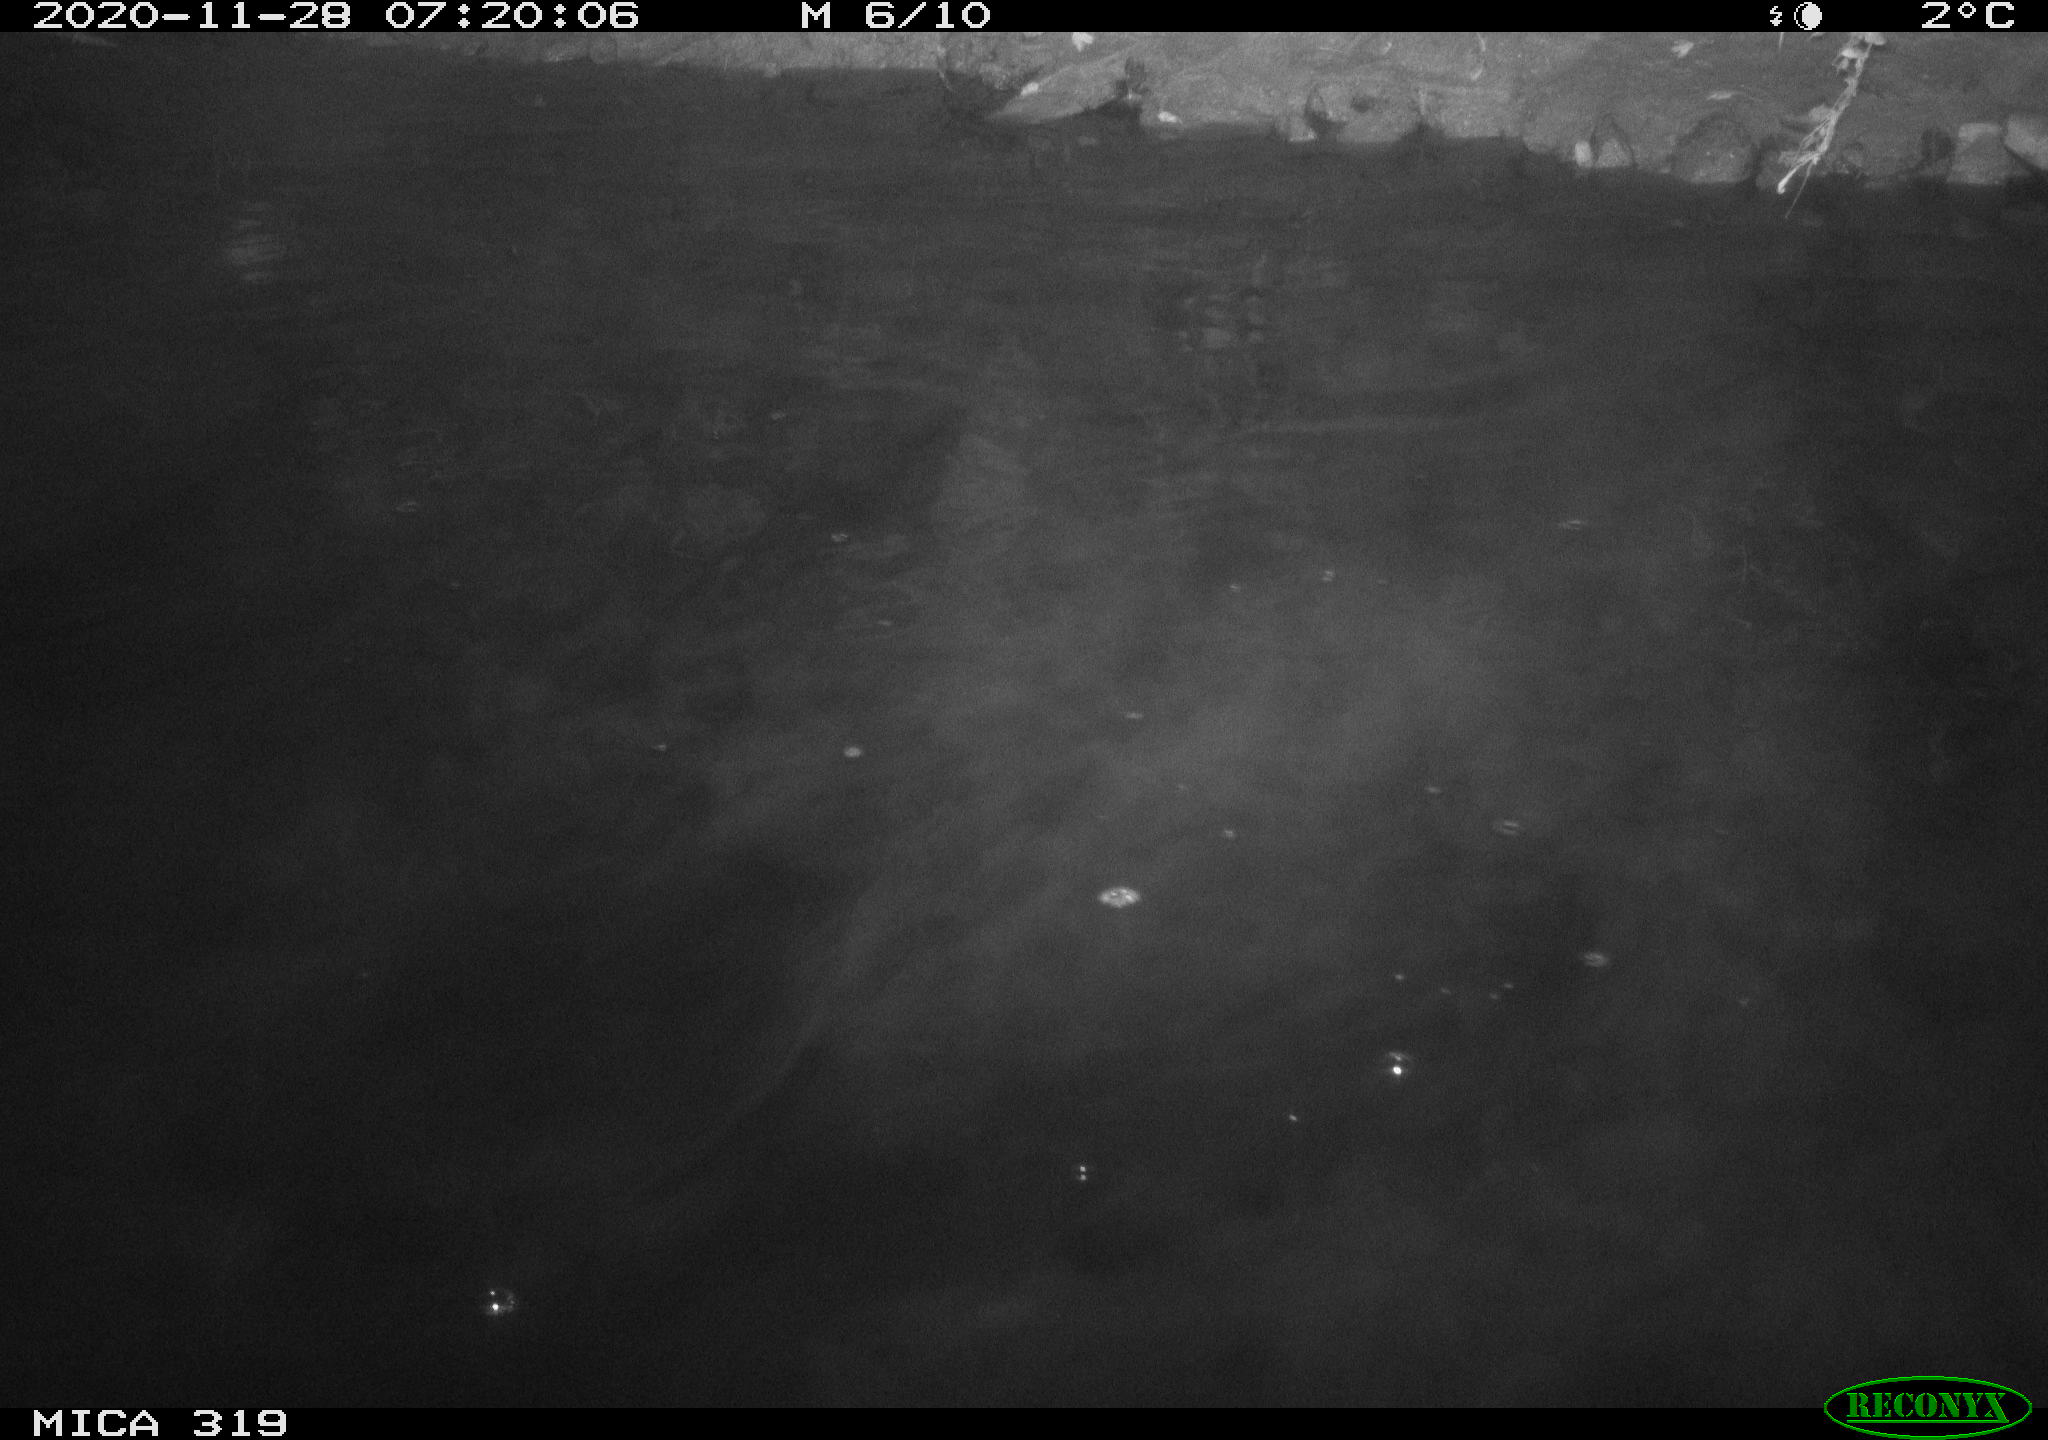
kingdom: Animalia
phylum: Chordata
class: Aves
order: Anseriformes
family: Anatidae
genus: Anas
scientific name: Anas platyrhynchos
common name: Mallard
